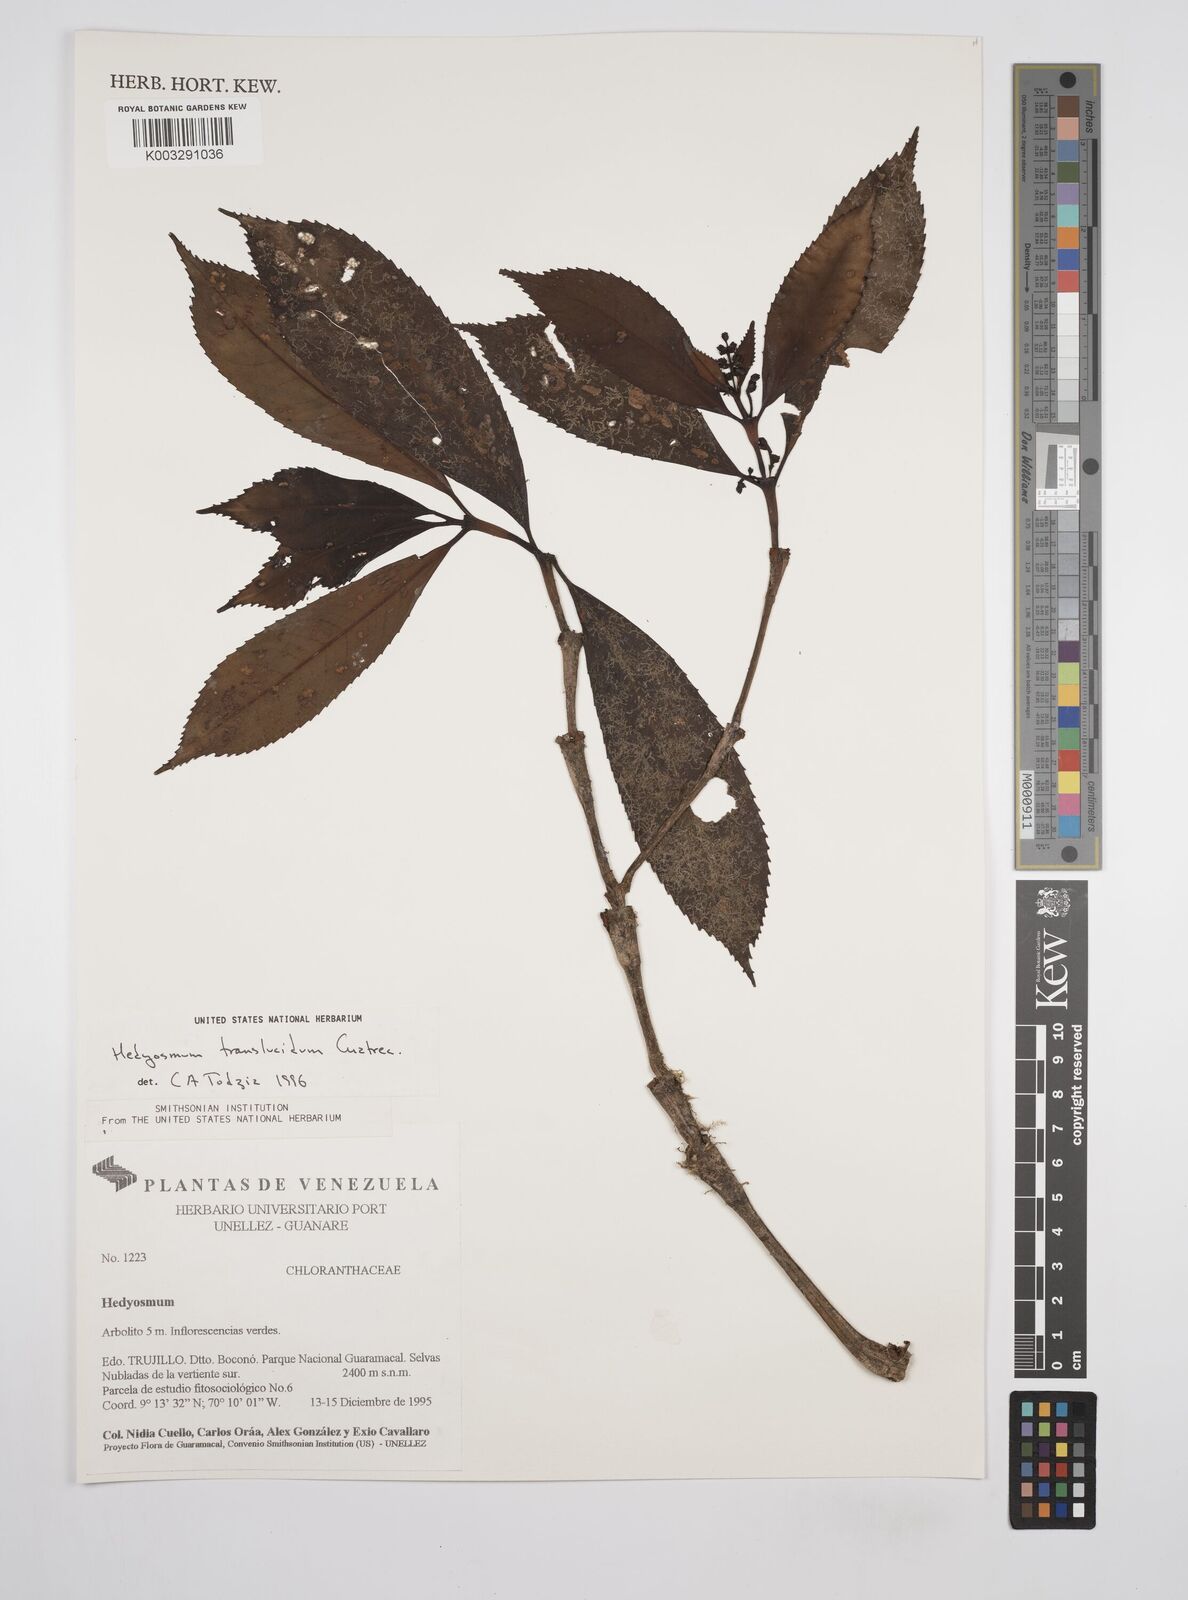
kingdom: Plantae
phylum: Tracheophyta
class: Magnoliopsida
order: Chloranthales
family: Chloranthaceae
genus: Hedyosmum
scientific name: Hedyosmum translucidum
